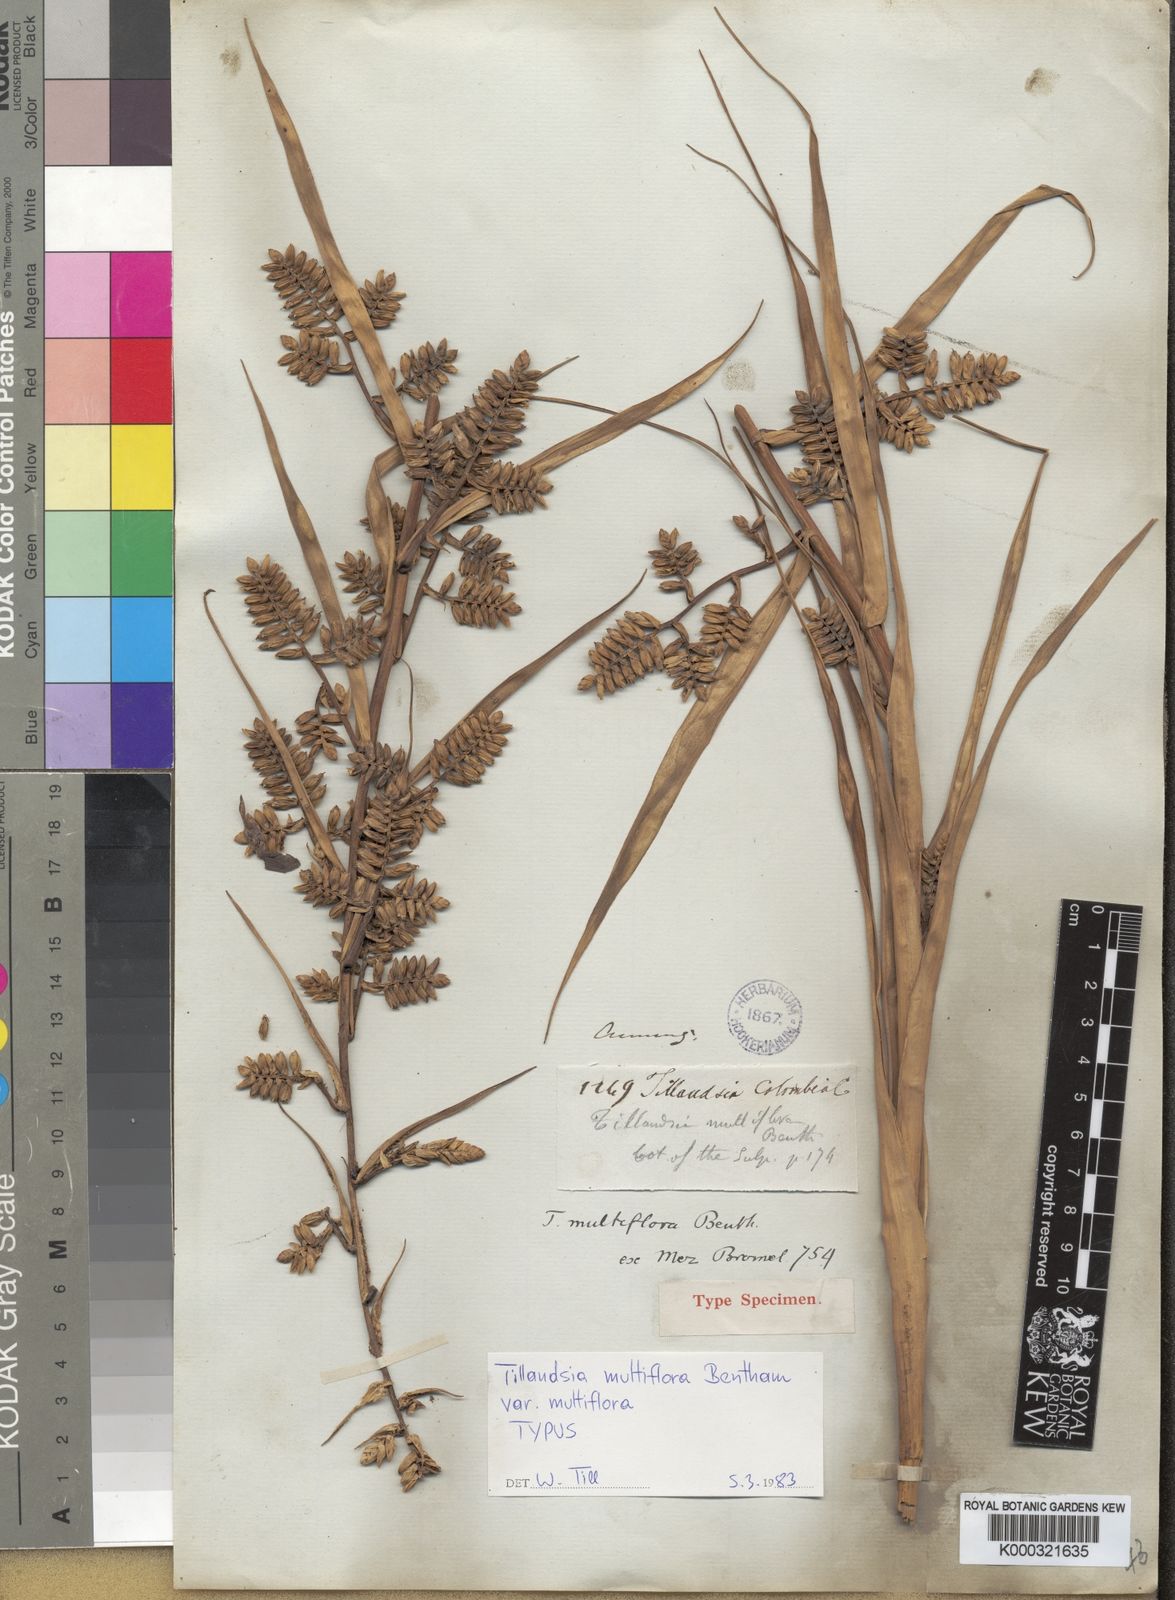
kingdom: Plantae
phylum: Tracheophyta
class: Liliopsida
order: Poales
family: Bromeliaceae
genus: Racinaea
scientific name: Racinaea multiflora
